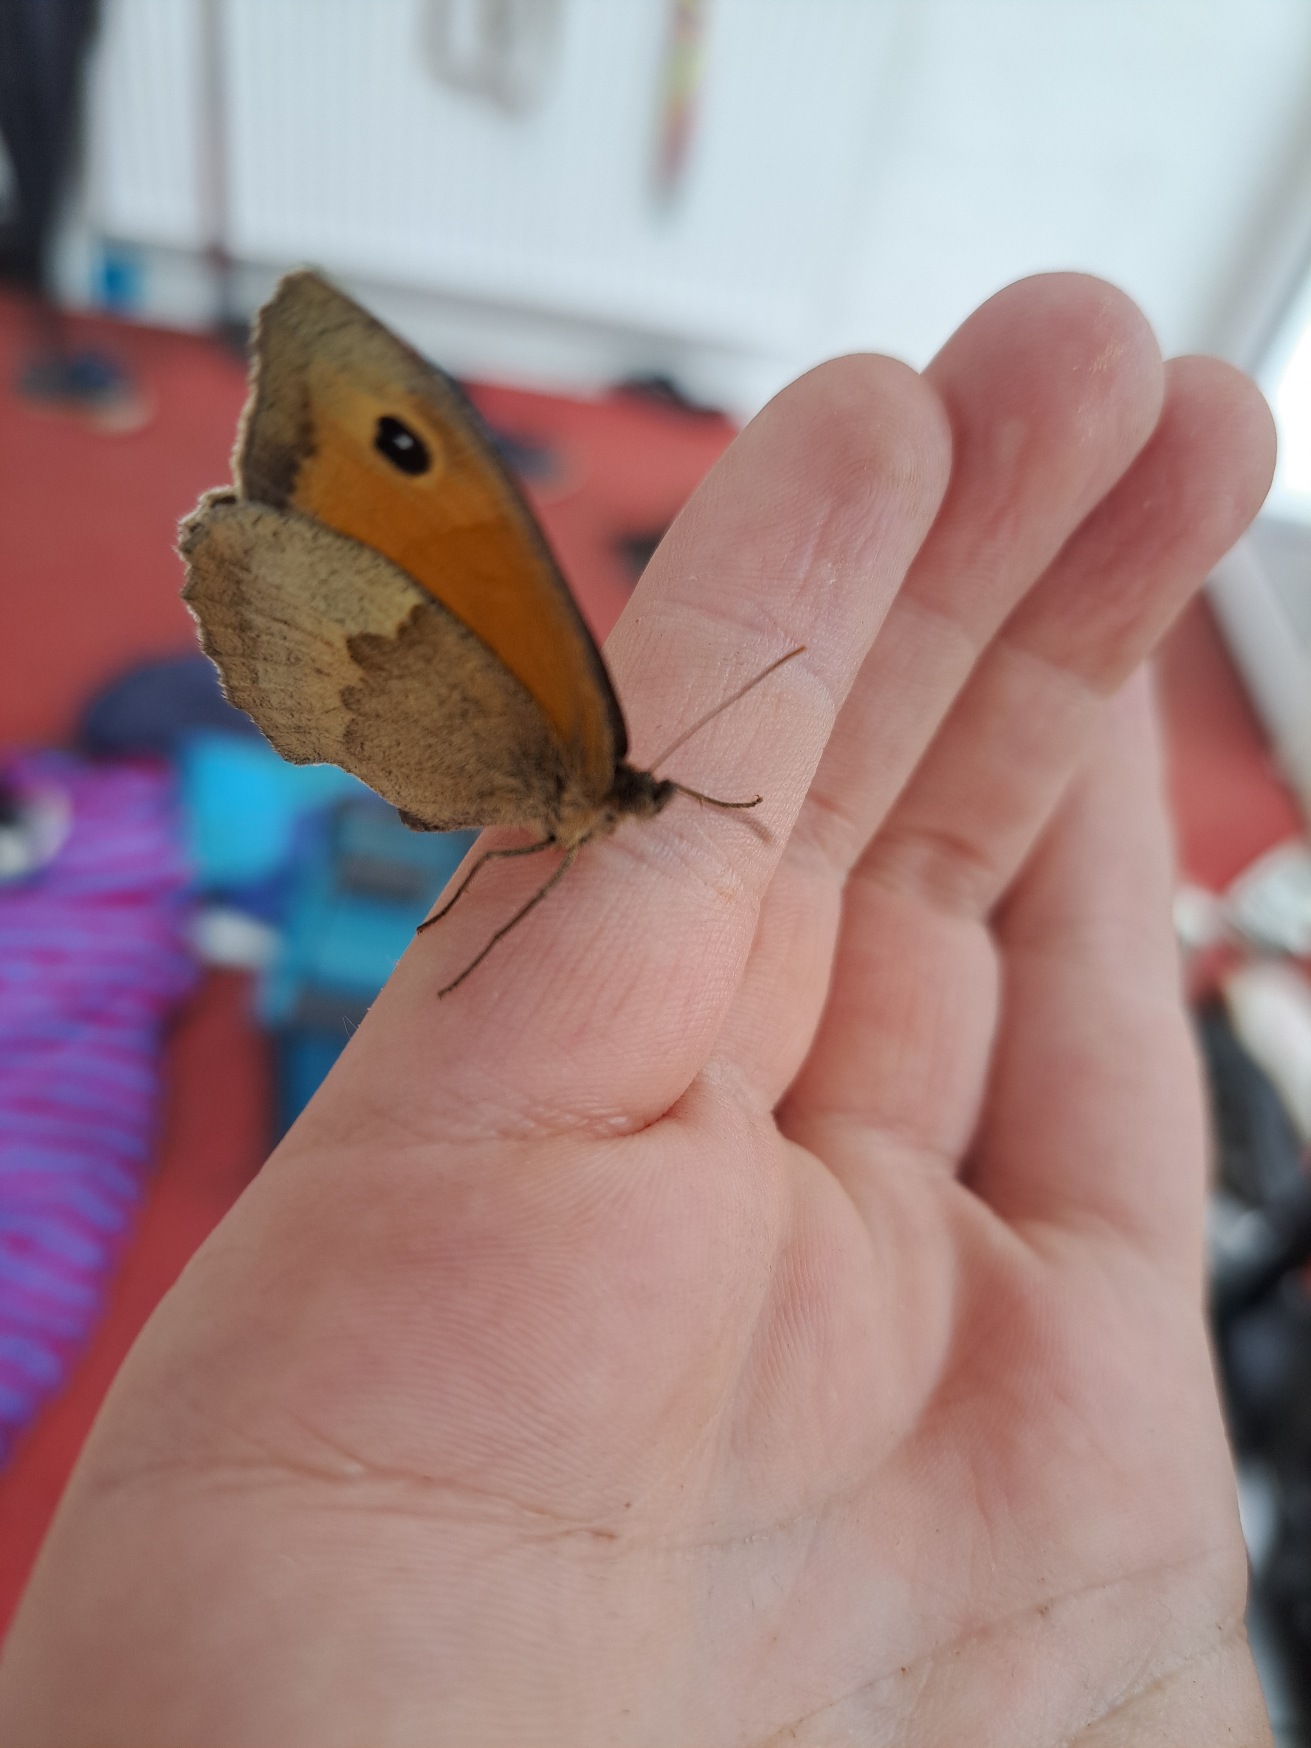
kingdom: Animalia
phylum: Arthropoda
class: Insecta
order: Lepidoptera
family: Nymphalidae
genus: Maniola
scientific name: Maniola jurtina
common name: Græsrandøje
